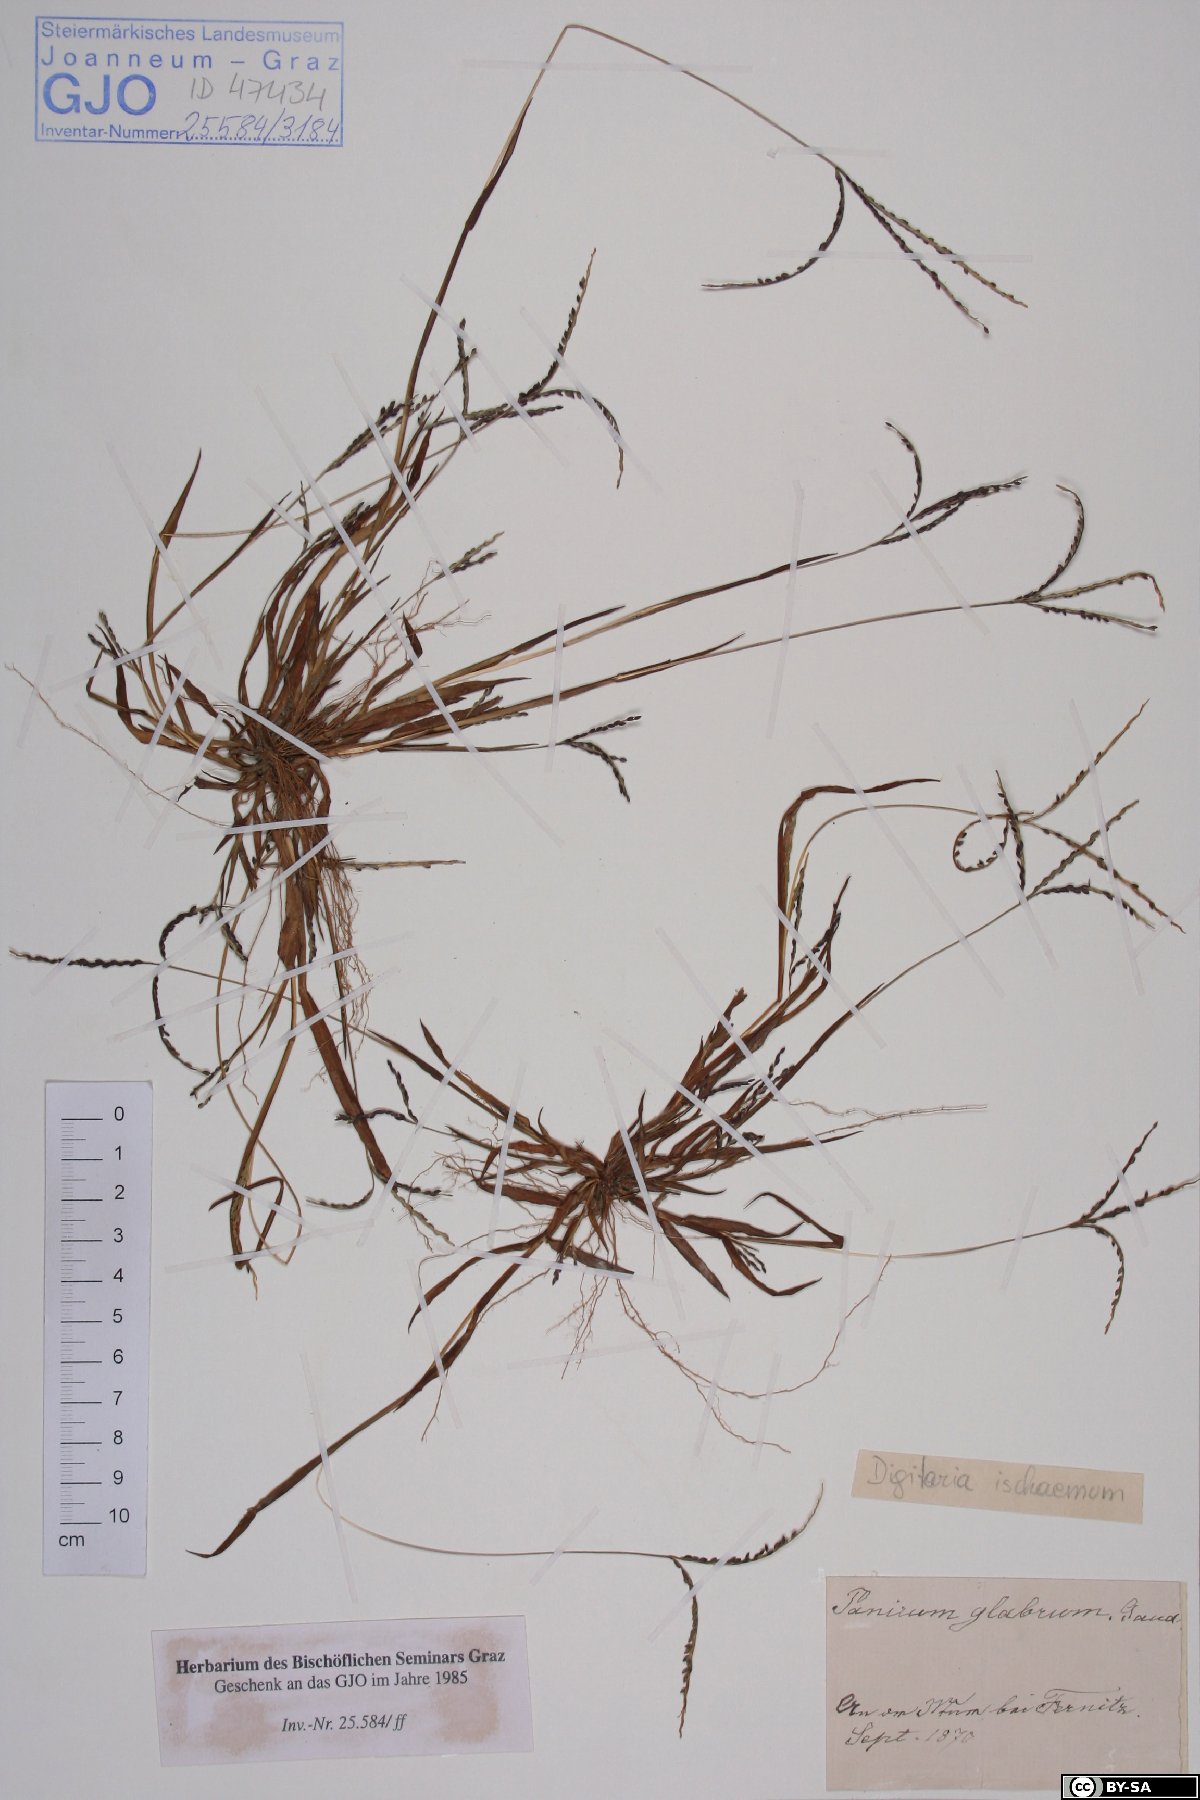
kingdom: Plantae
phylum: Tracheophyta
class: Liliopsida
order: Poales
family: Poaceae
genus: Digitaria
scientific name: Digitaria ischaemum
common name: Smooth crabgrass
